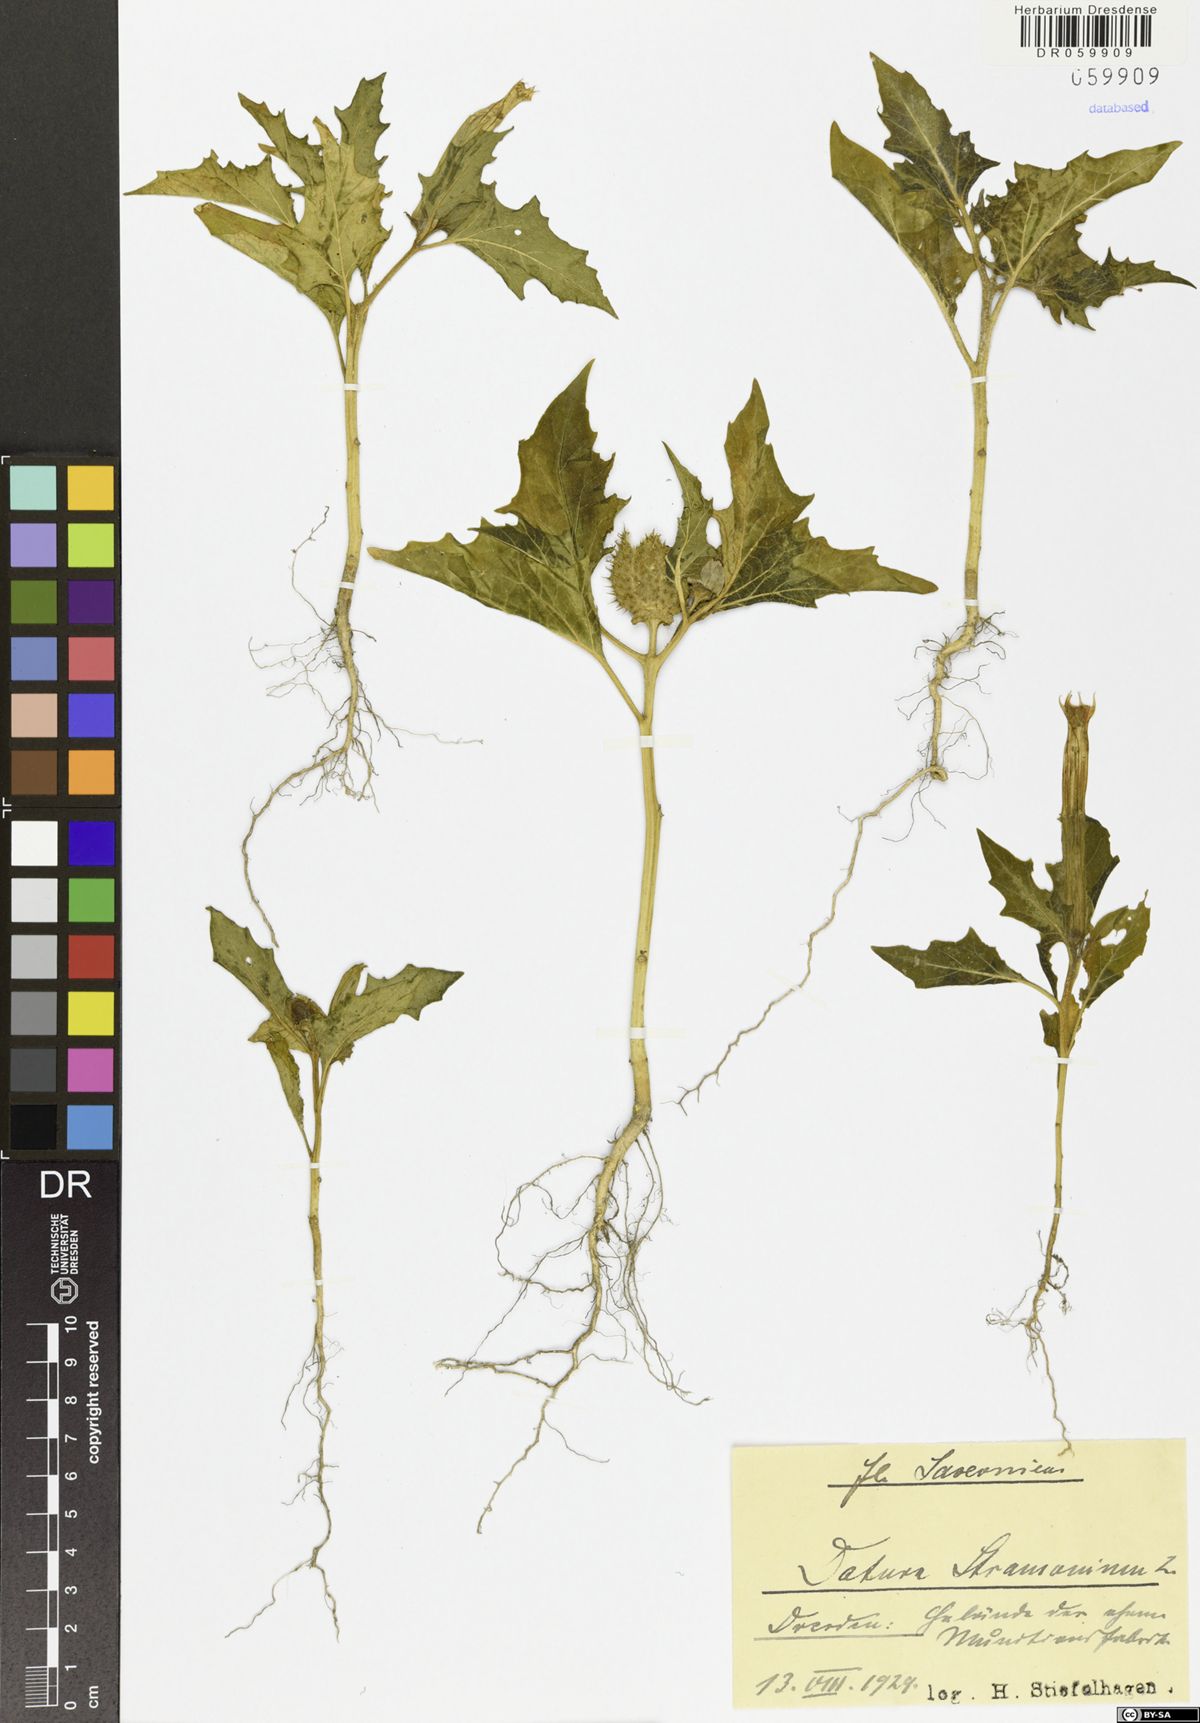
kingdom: Plantae
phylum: Tracheophyta
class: Magnoliopsida
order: Solanales
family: Solanaceae
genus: Datura
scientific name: Datura stramonium
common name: Thorn-apple
